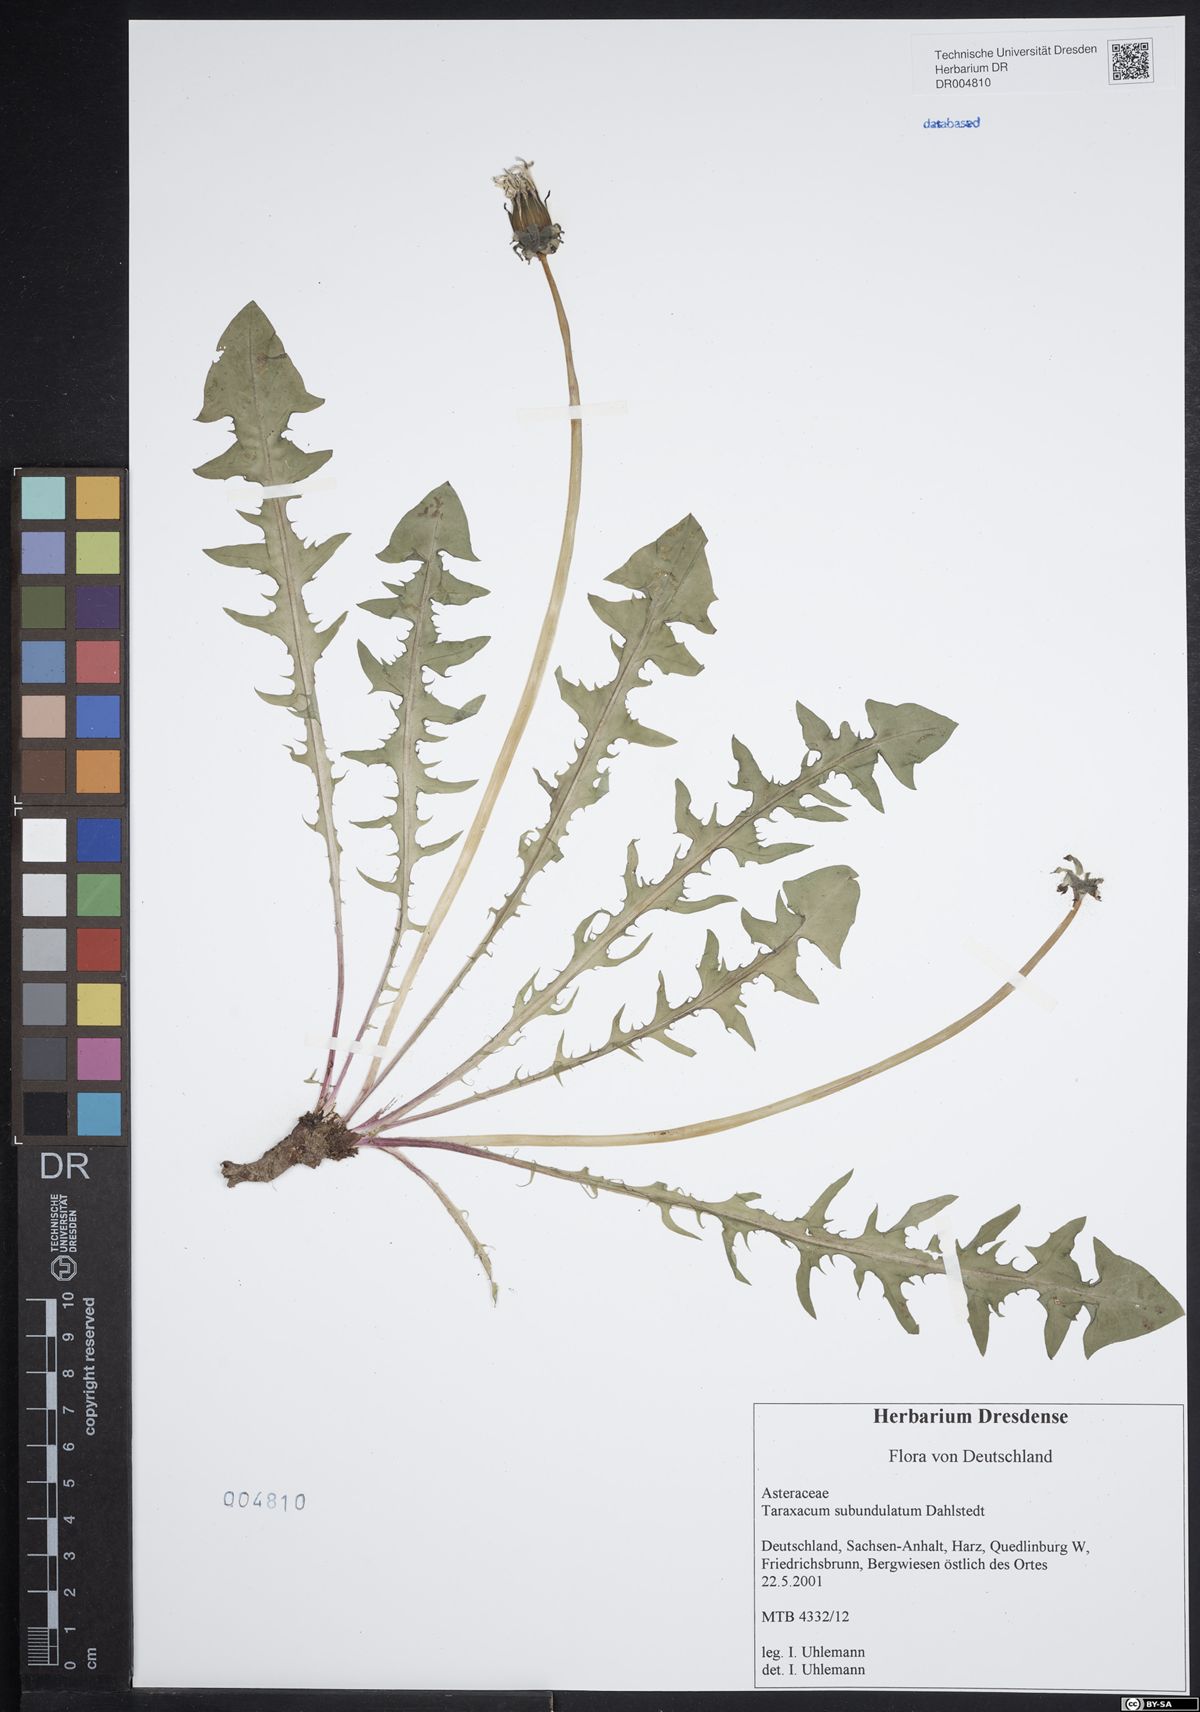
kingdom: Plantae
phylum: Tracheophyta
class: Magnoliopsida
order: Asterales
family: Asteraceae
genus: Taraxacum
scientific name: Taraxacum subundulatum
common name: Complex-leaved dandelion
